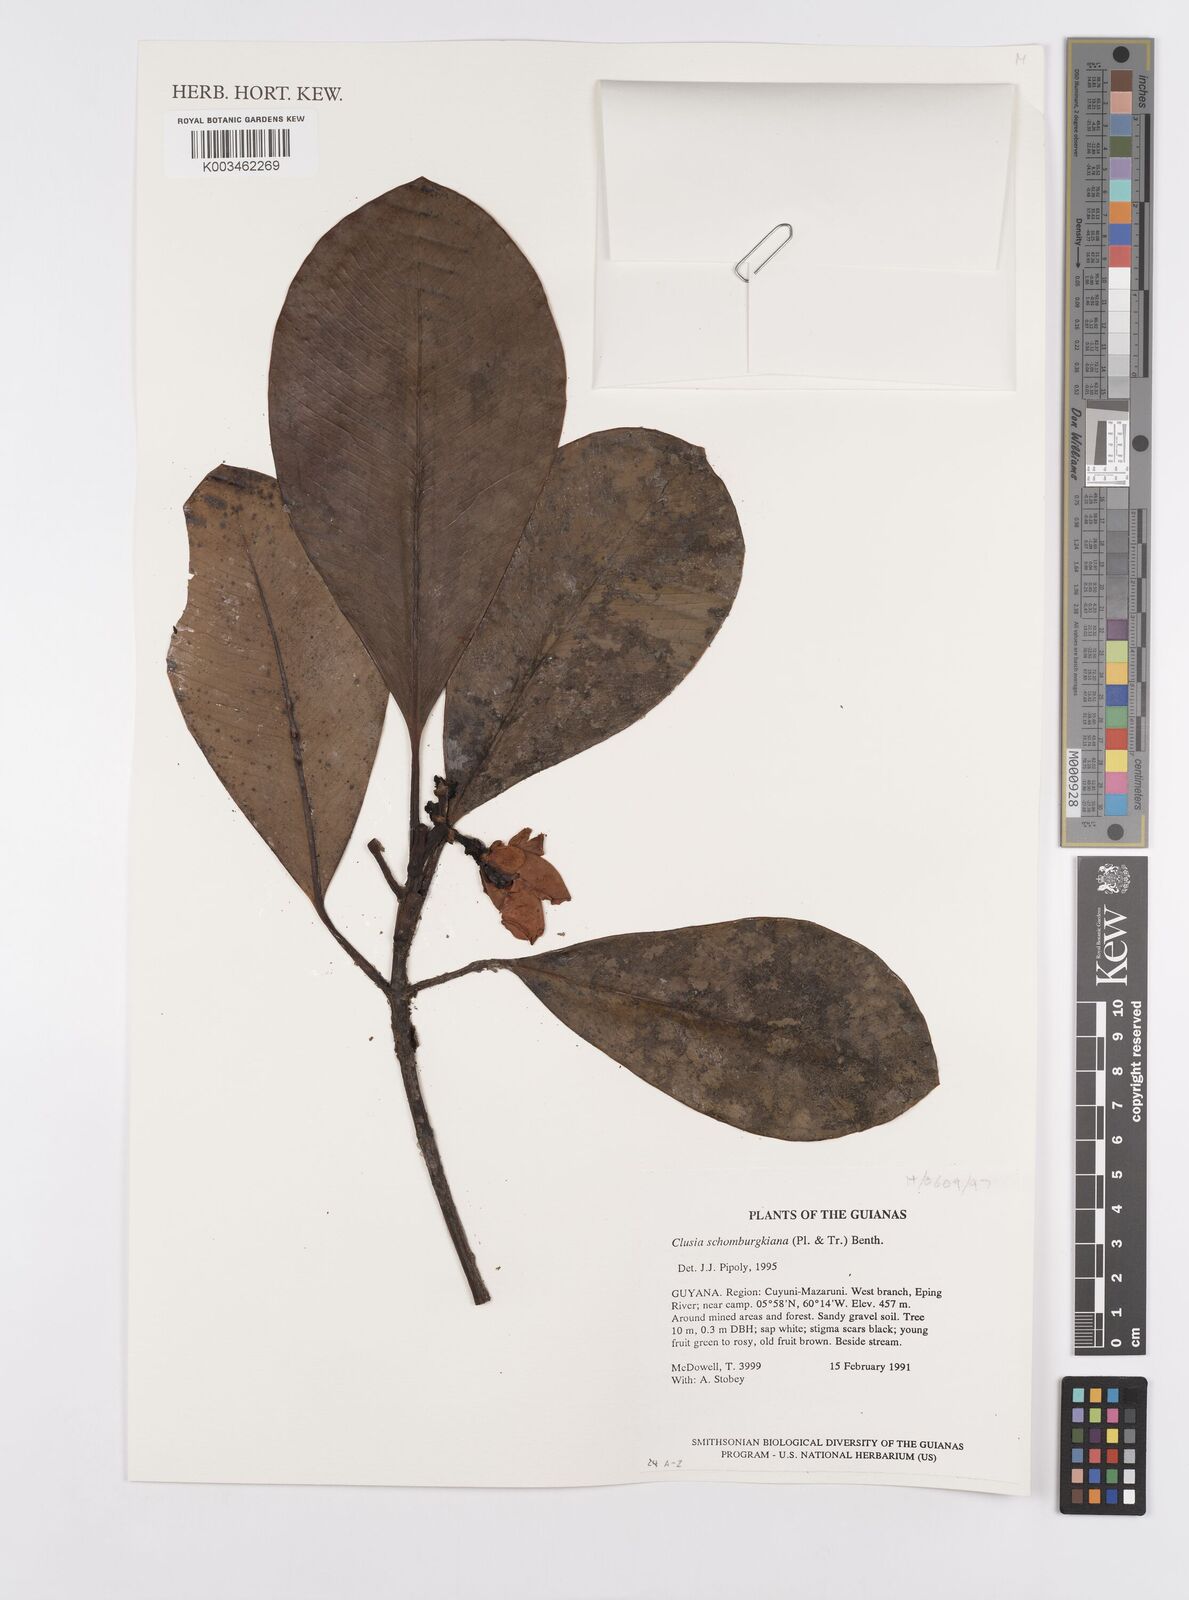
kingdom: Plantae
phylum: Tracheophyta
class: Magnoliopsida
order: Malpighiales
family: Clusiaceae
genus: Clusia
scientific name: Clusia schomburgkiana
